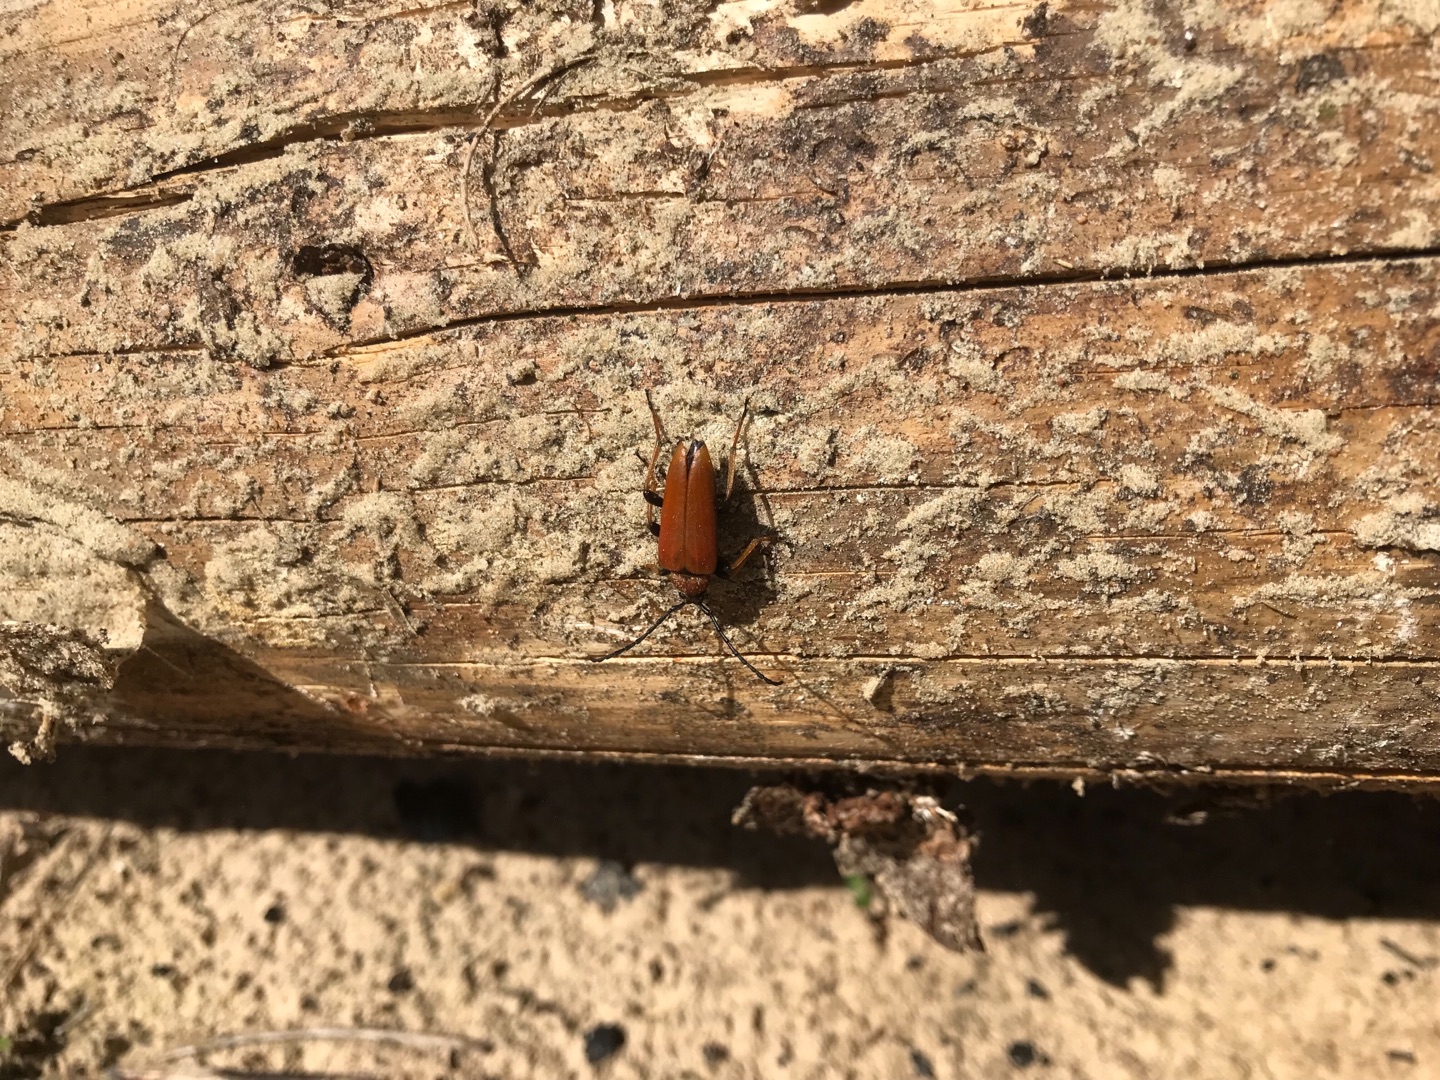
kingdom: Animalia
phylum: Arthropoda
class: Insecta
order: Coleoptera
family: Cerambycidae
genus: Stictoleptura
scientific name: Stictoleptura rubra
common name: Rød blomsterbuk
